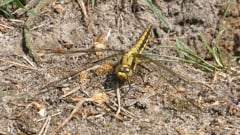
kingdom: Animalia
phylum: Arthropoda
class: Insecta
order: Odonata
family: Libellulidae
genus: Orthetrum
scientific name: Orthetrum cancellatum
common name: Black-tailed skimmer
